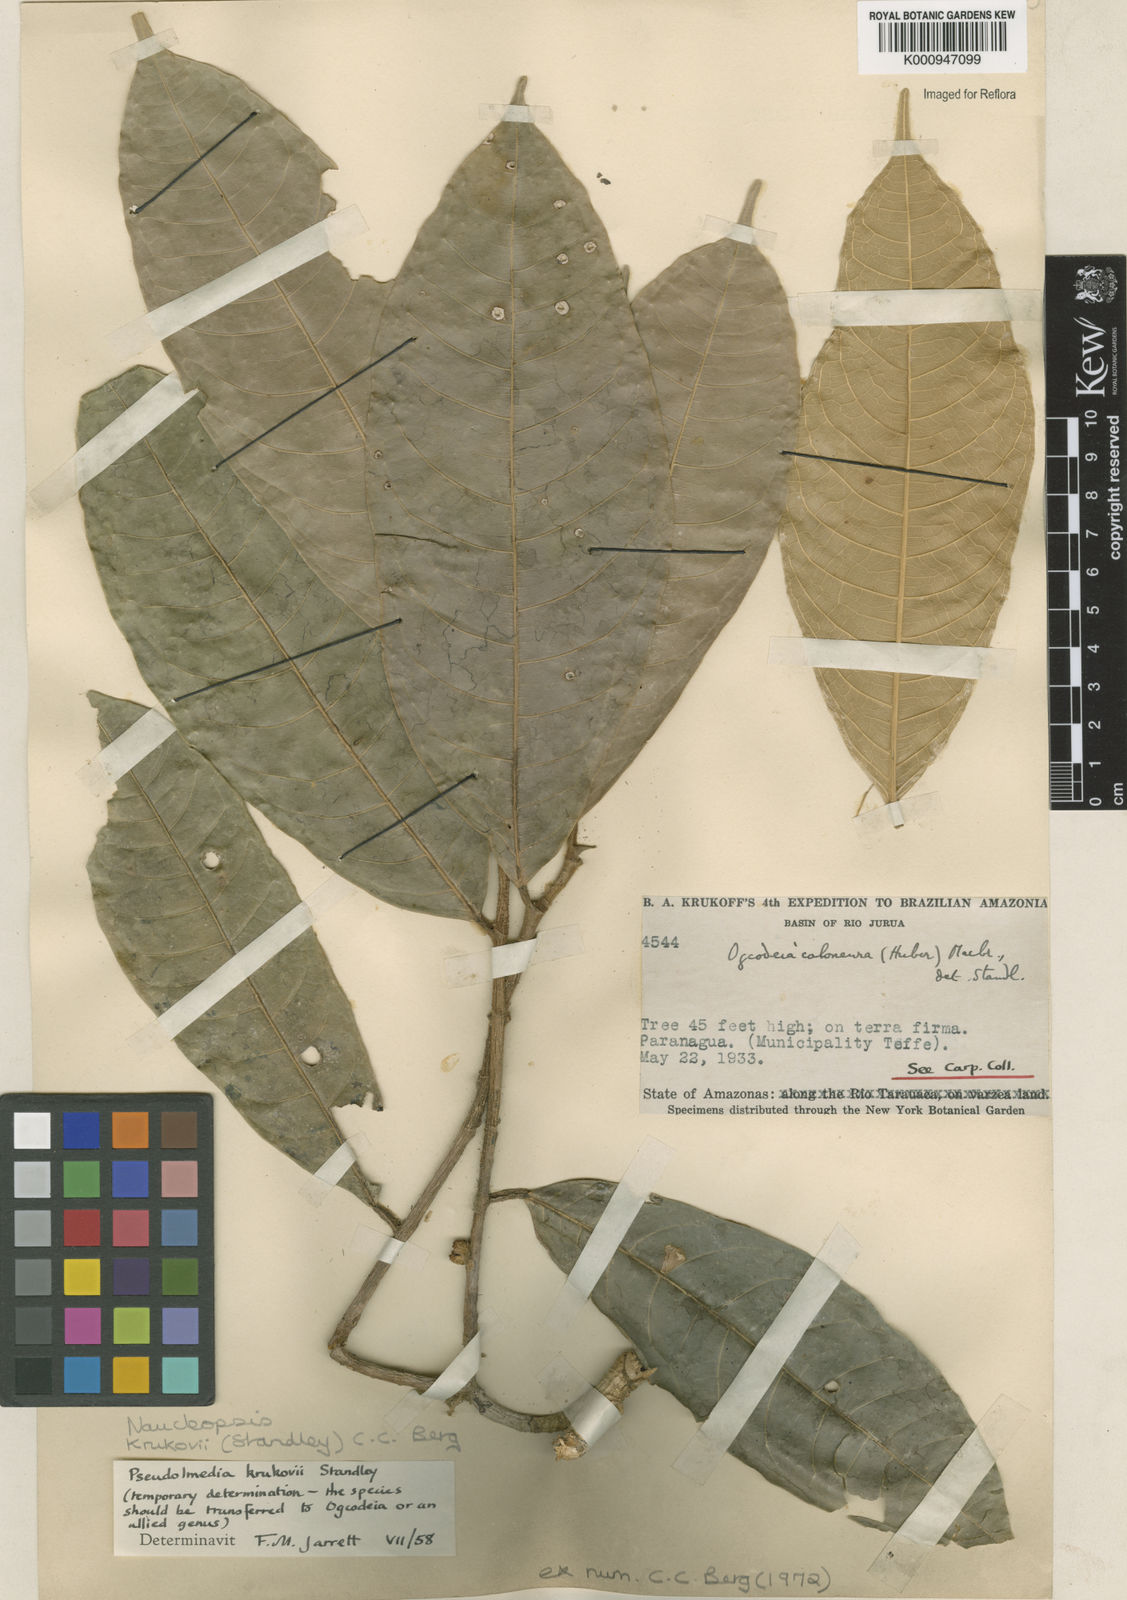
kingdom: Plantae
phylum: Tracheophyta
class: Magnoliopsida
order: Rosales
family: Moraceae
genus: Naucleopsis
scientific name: Naucleopsis krukovii
